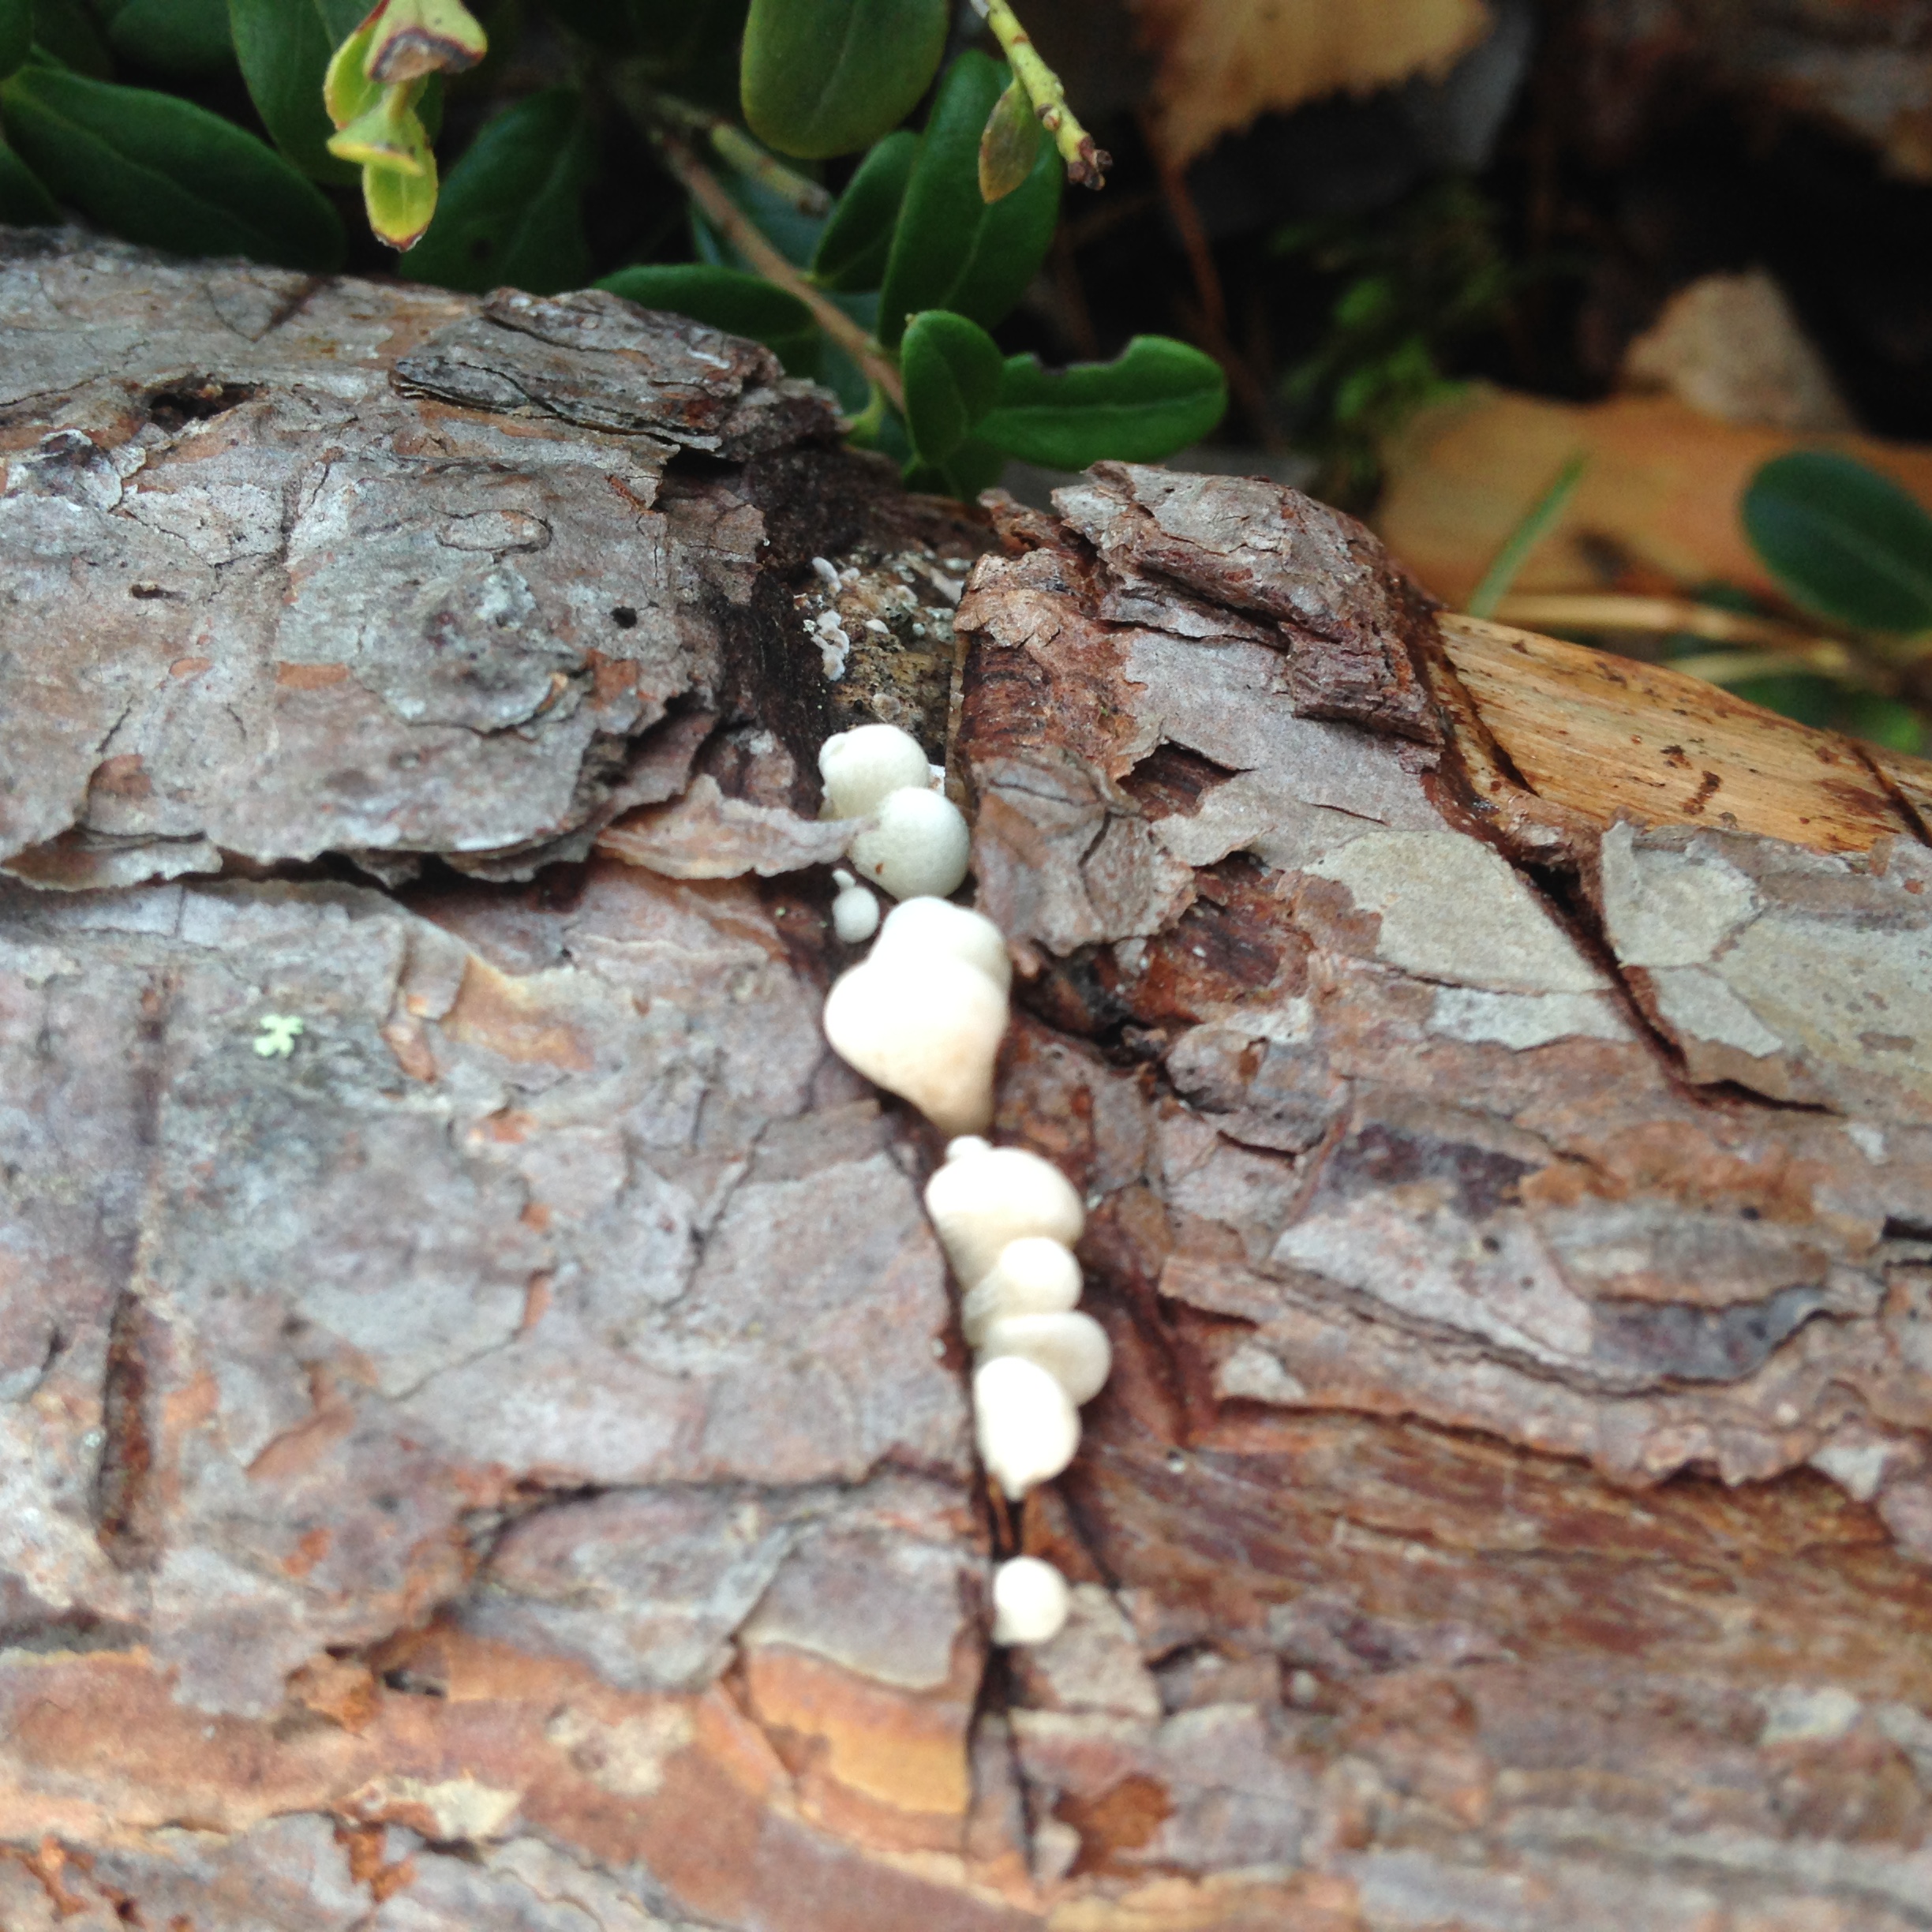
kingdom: Fungi
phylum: Basidiomycota
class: Agaricomycetes
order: Agaricales
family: Mycenaceae
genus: Panellus
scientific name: Panellus mitis
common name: Elastic oysterling
